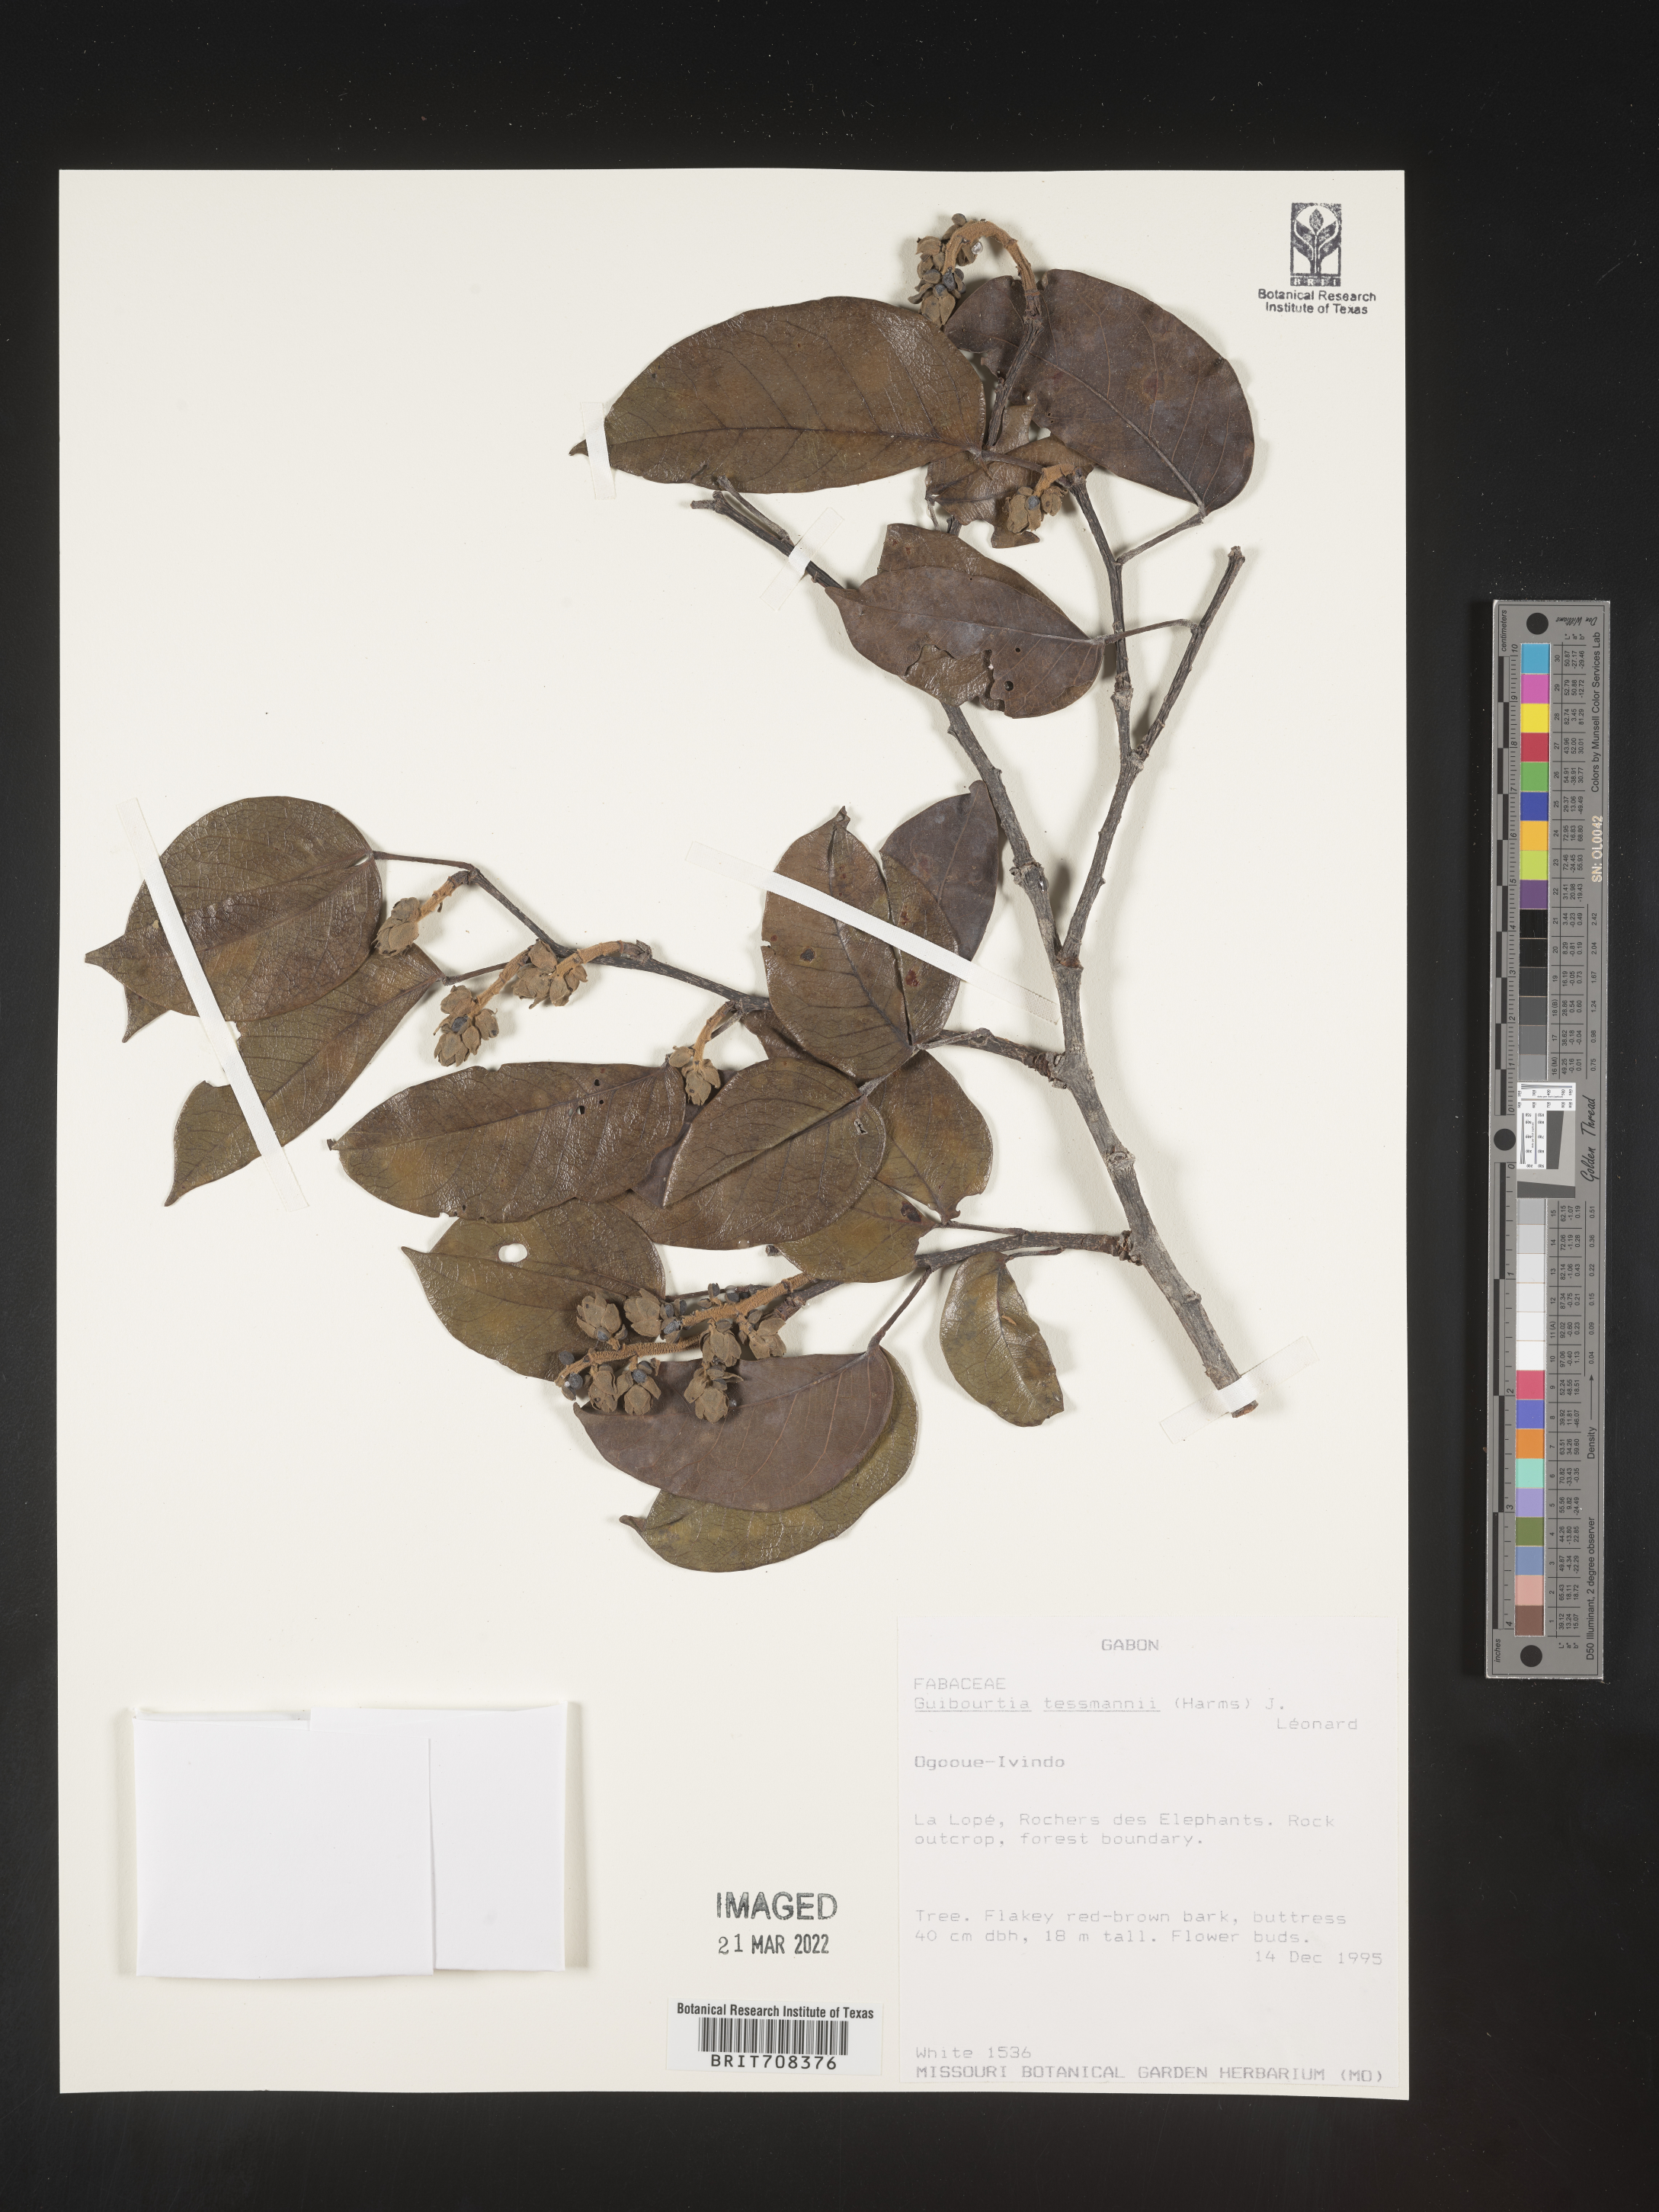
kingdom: Plantae
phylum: Tracheophyta
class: Magnoliopsida
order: Fabales
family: Fabaceae
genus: Guibourtia
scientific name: Guibourtia
